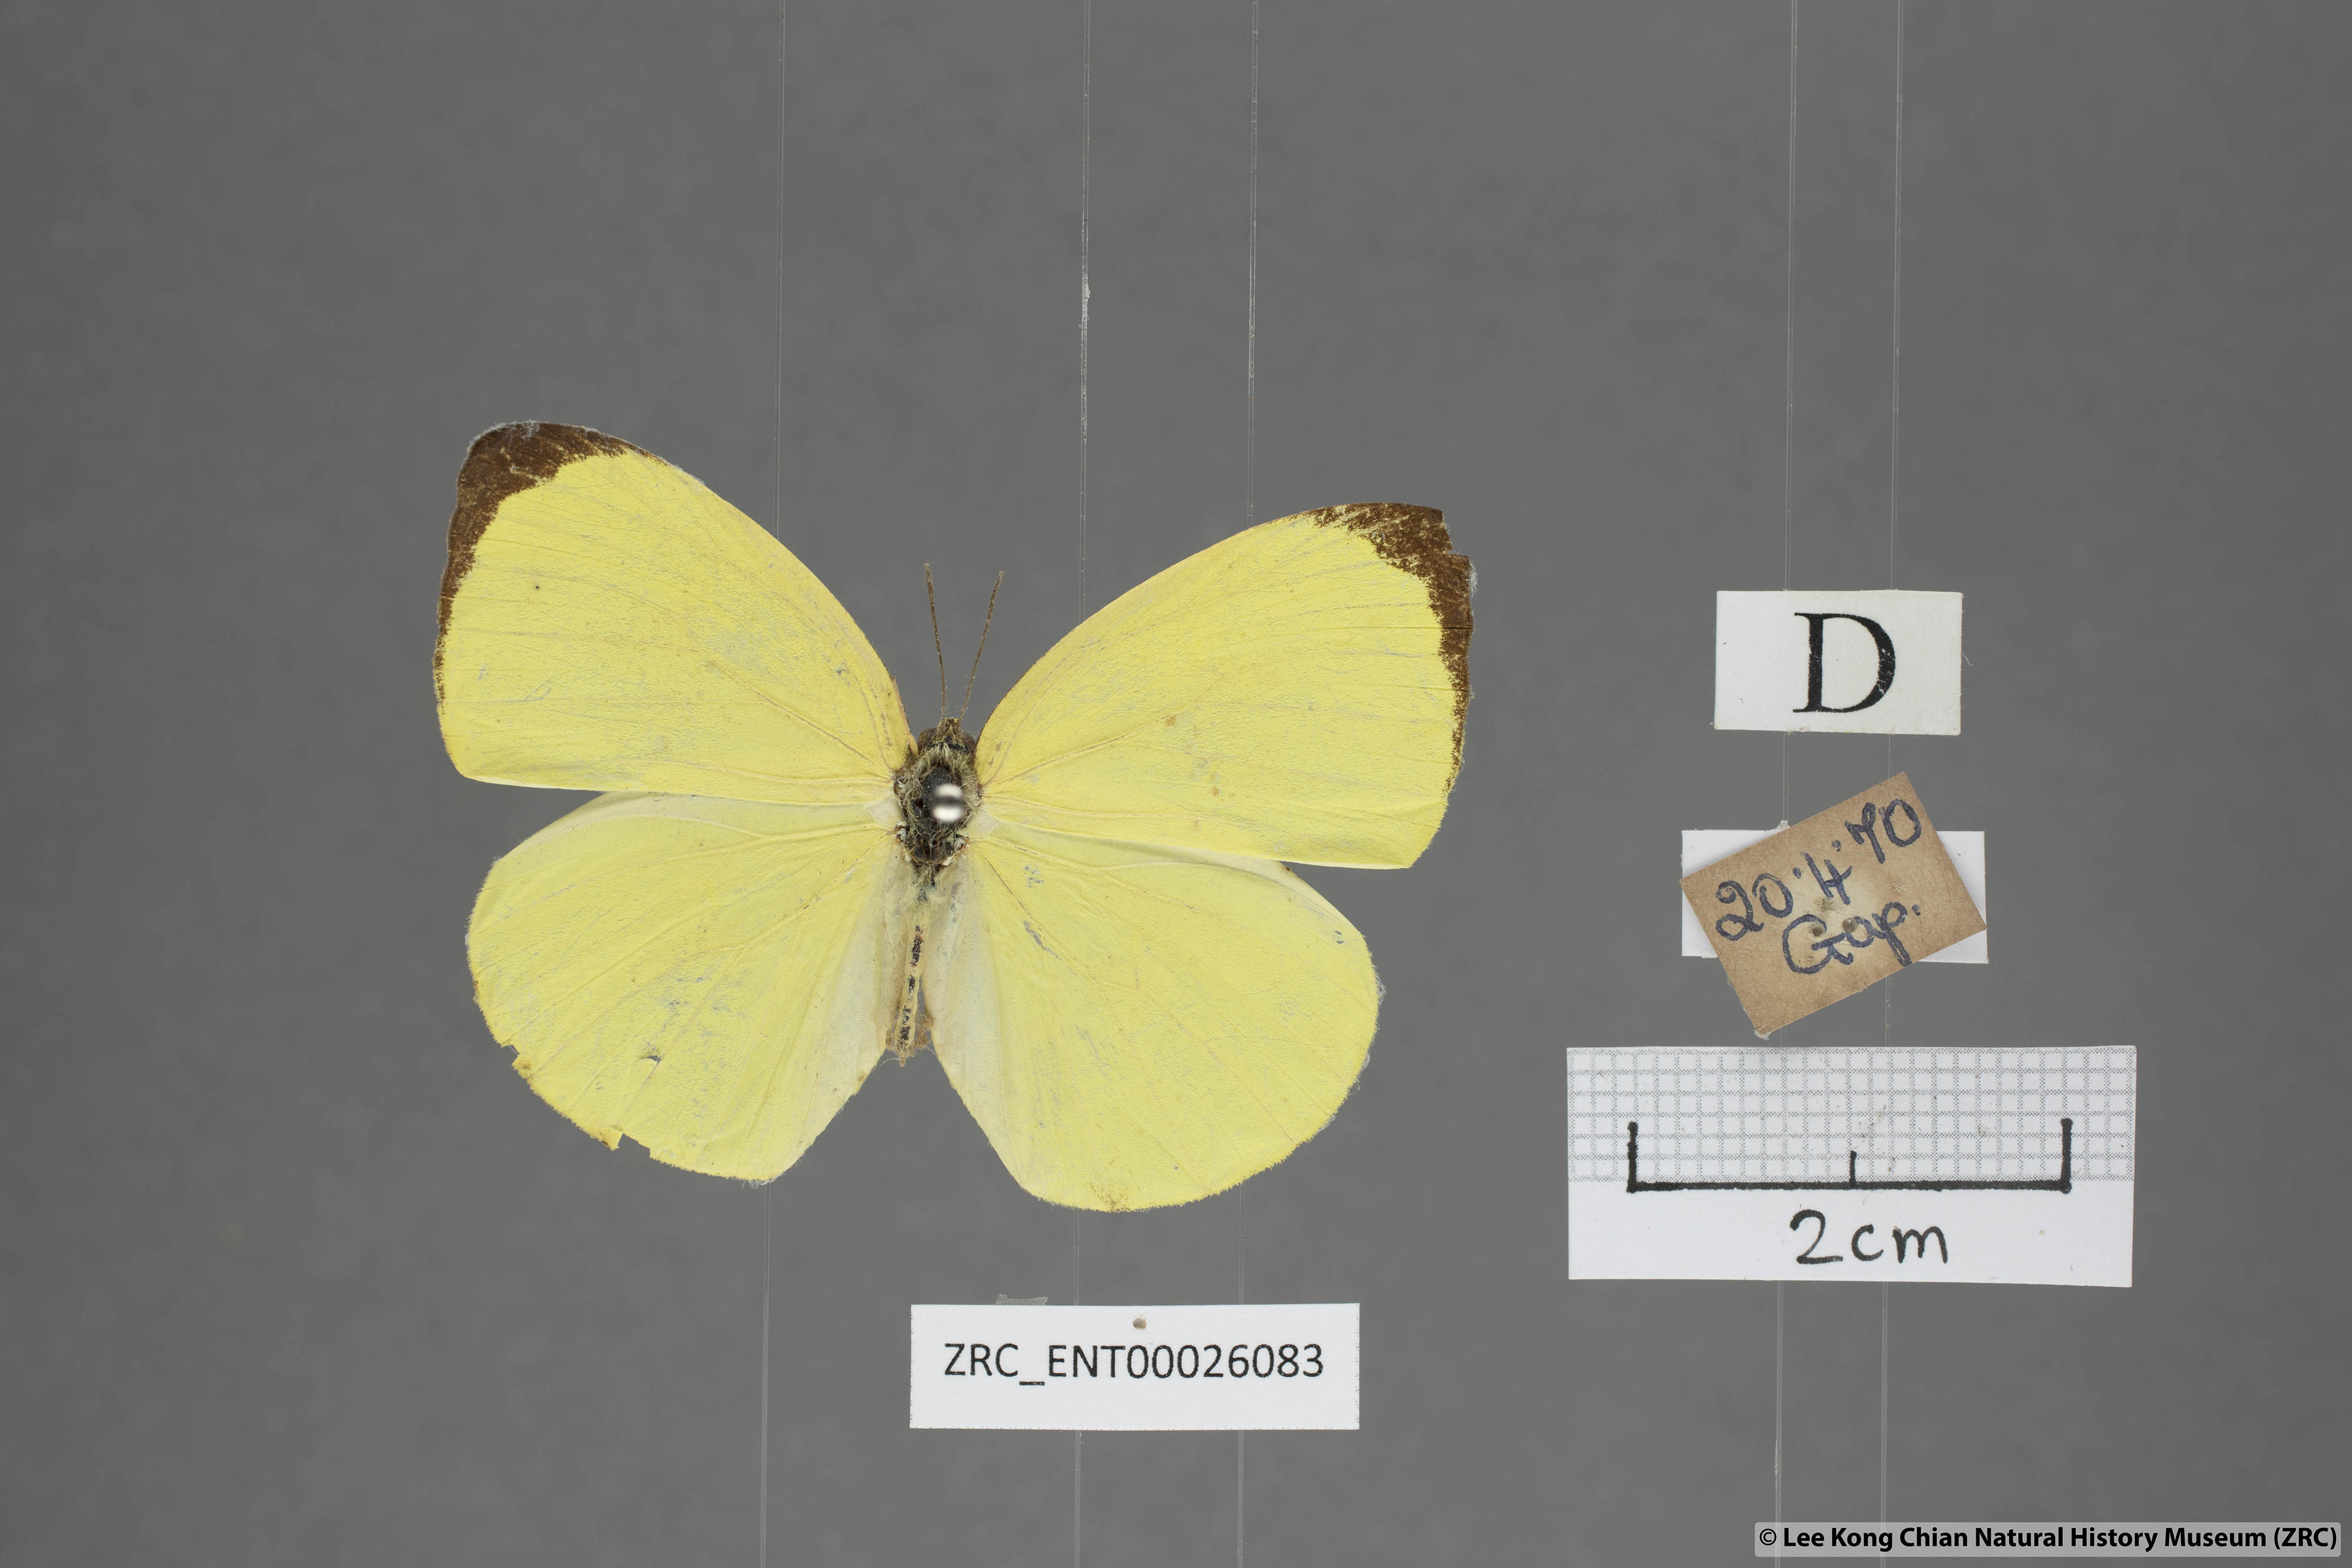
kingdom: Animalia
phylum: Arthropoda
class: Insecta
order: Lepidoptera
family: Pieridae
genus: Gandaca
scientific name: Gandaca harina
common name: Tree yellow
